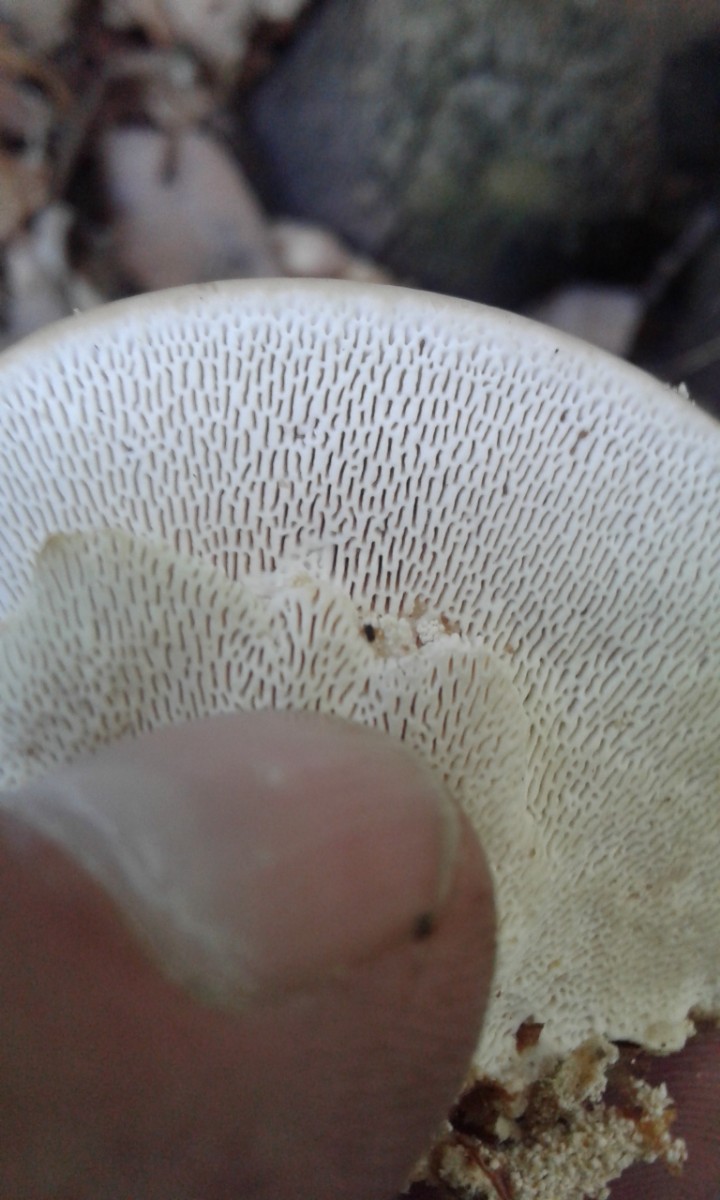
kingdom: Fungi
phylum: Basidiomycota
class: Agaricomycetes
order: Polyporales
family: Polyporaceae
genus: Trametes
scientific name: Trametes gibbosa
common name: puklet læderporesvamp
